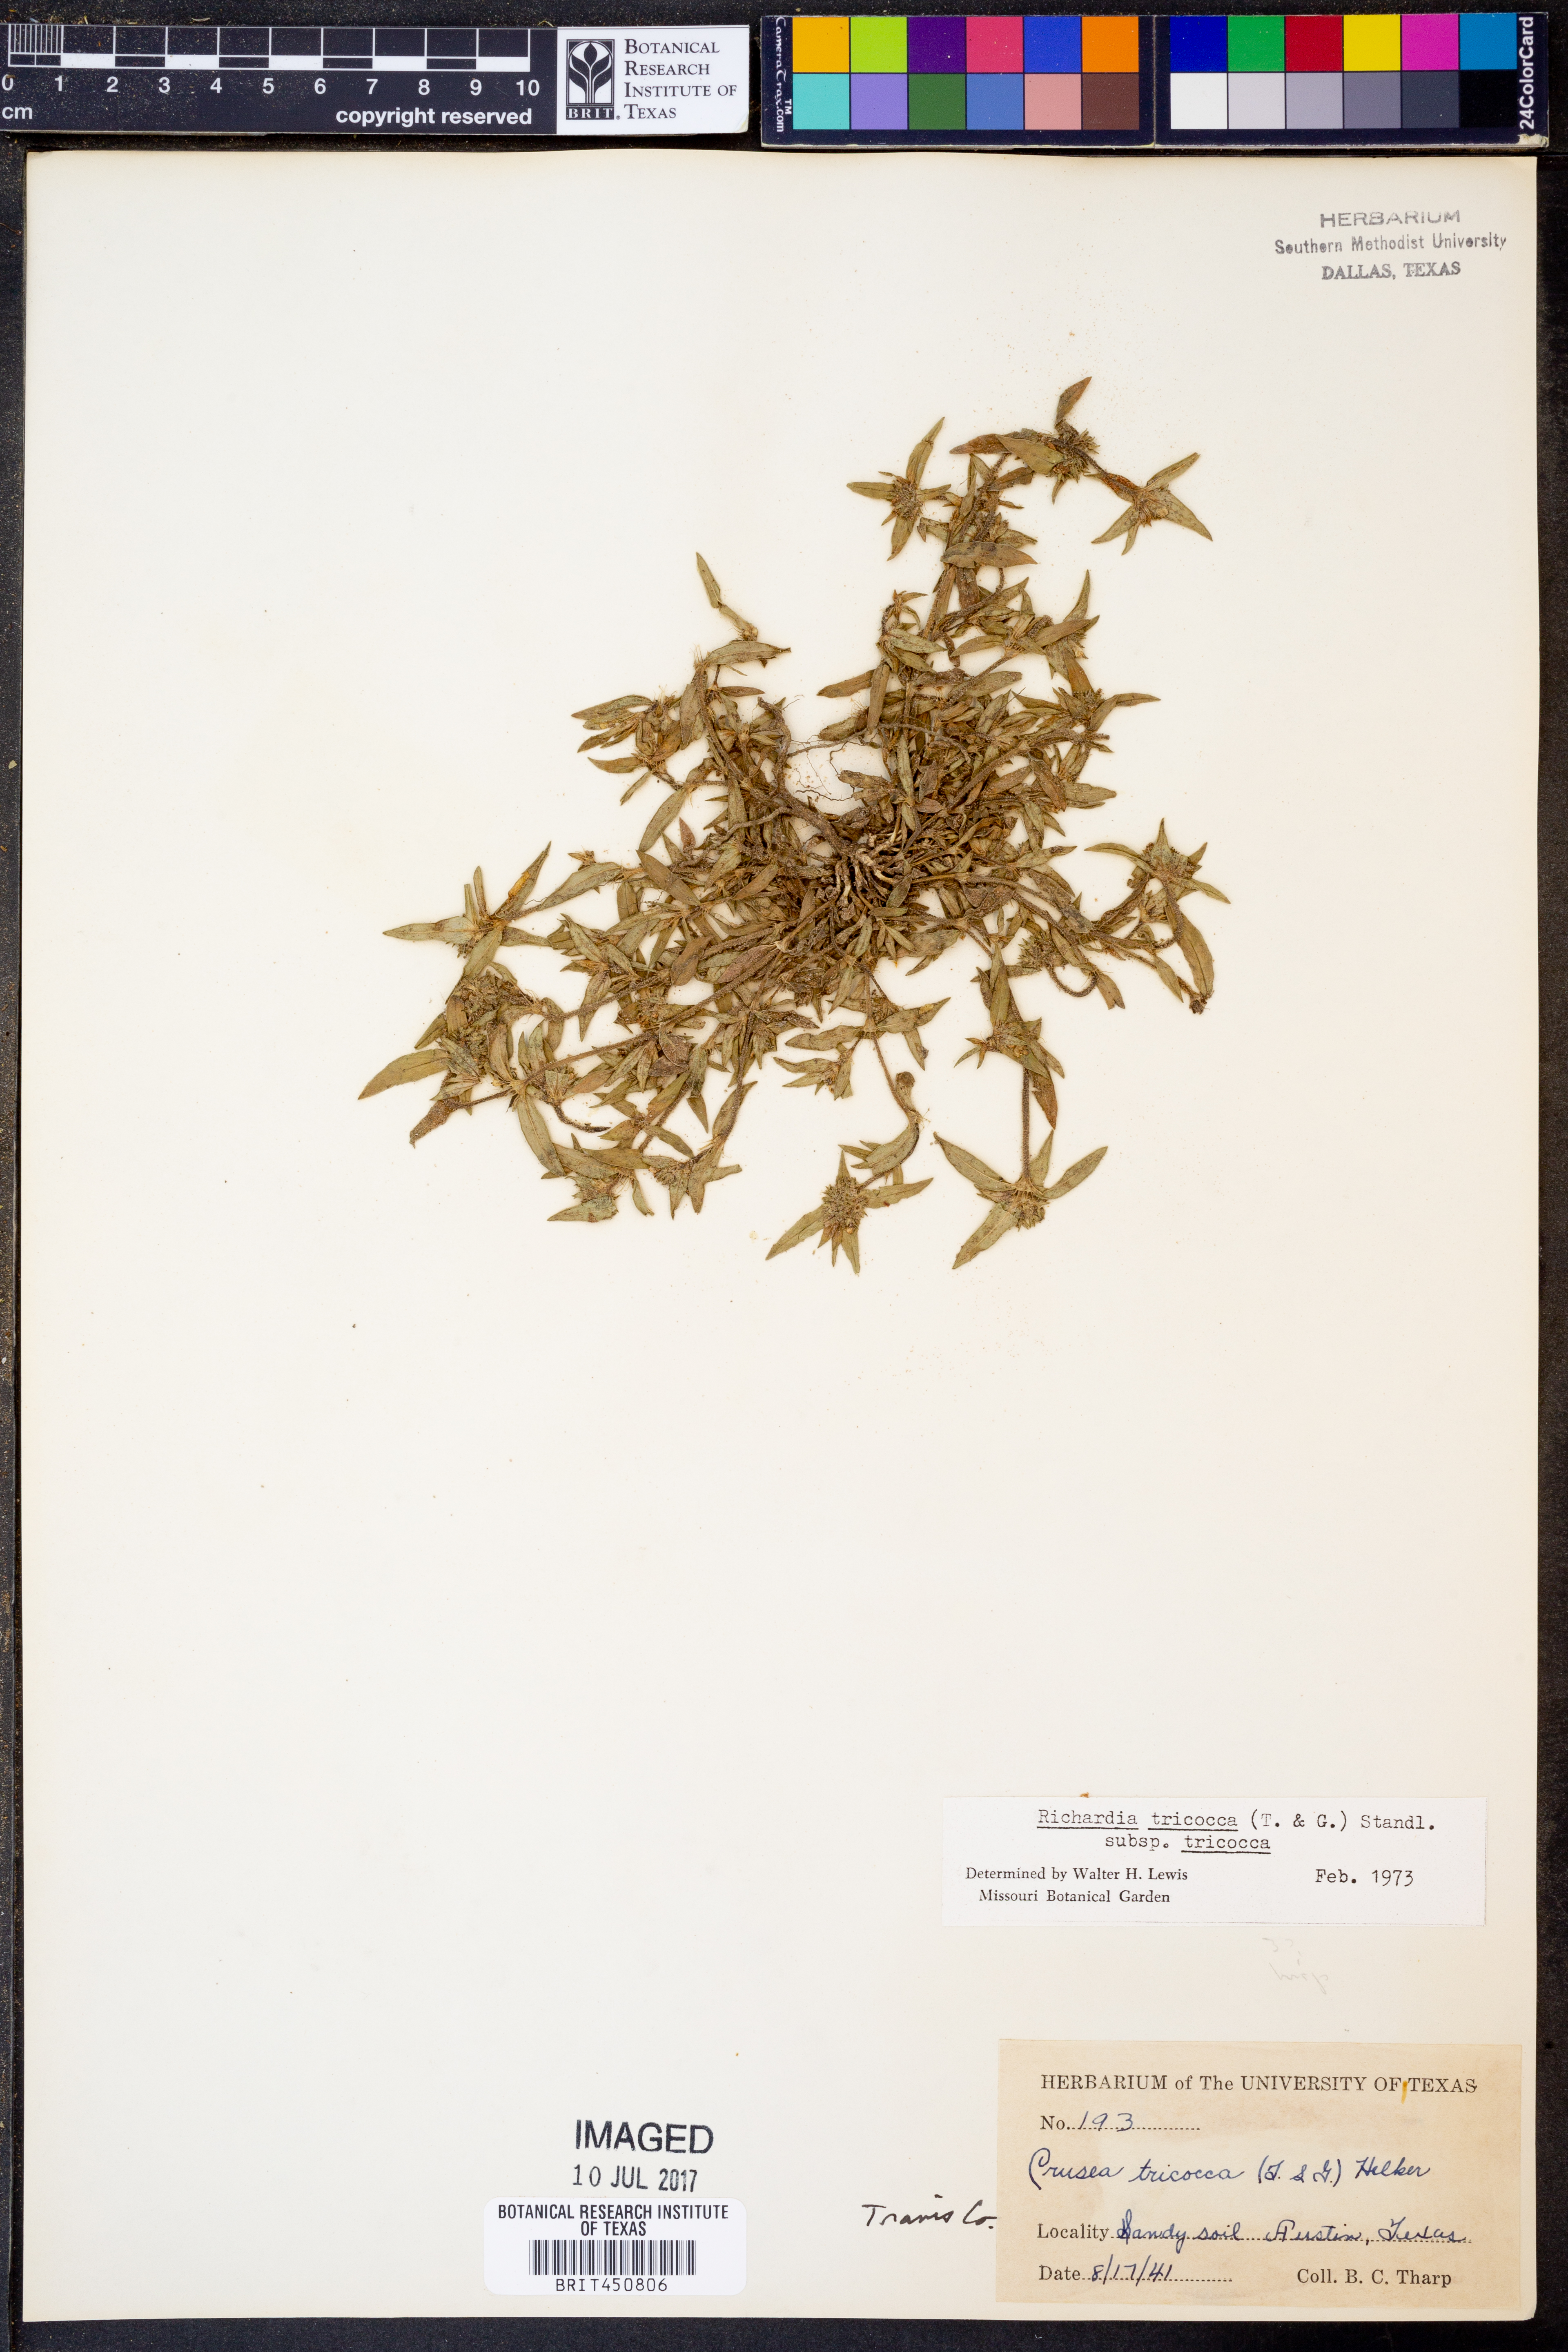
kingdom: Plantae
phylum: Tracheophyta
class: Magnoliopsida
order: Gentianales
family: Rubiaceae
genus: Richardia
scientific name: Richardia tricocca
